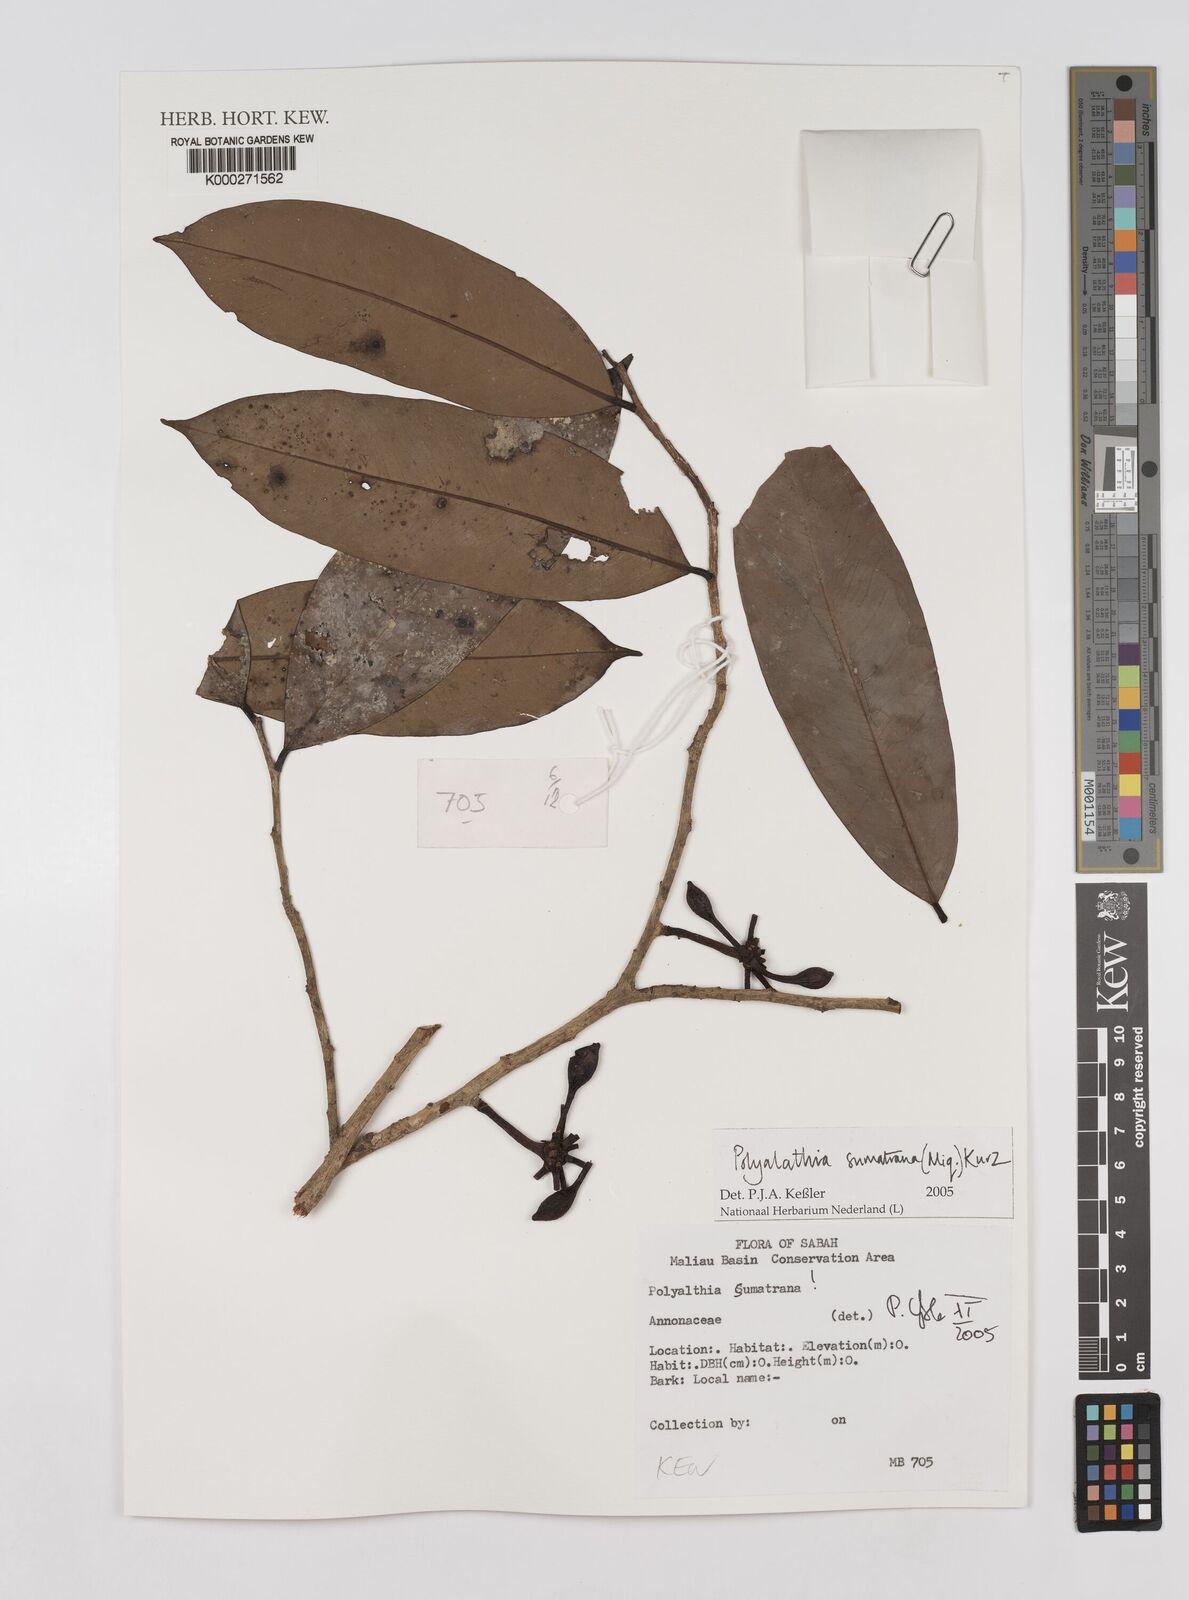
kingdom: Plantae
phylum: Tracheophyta
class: Magnoliopsida
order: Magnoliales
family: Annonaceae
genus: Maasia
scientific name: Maasia sumatrana
